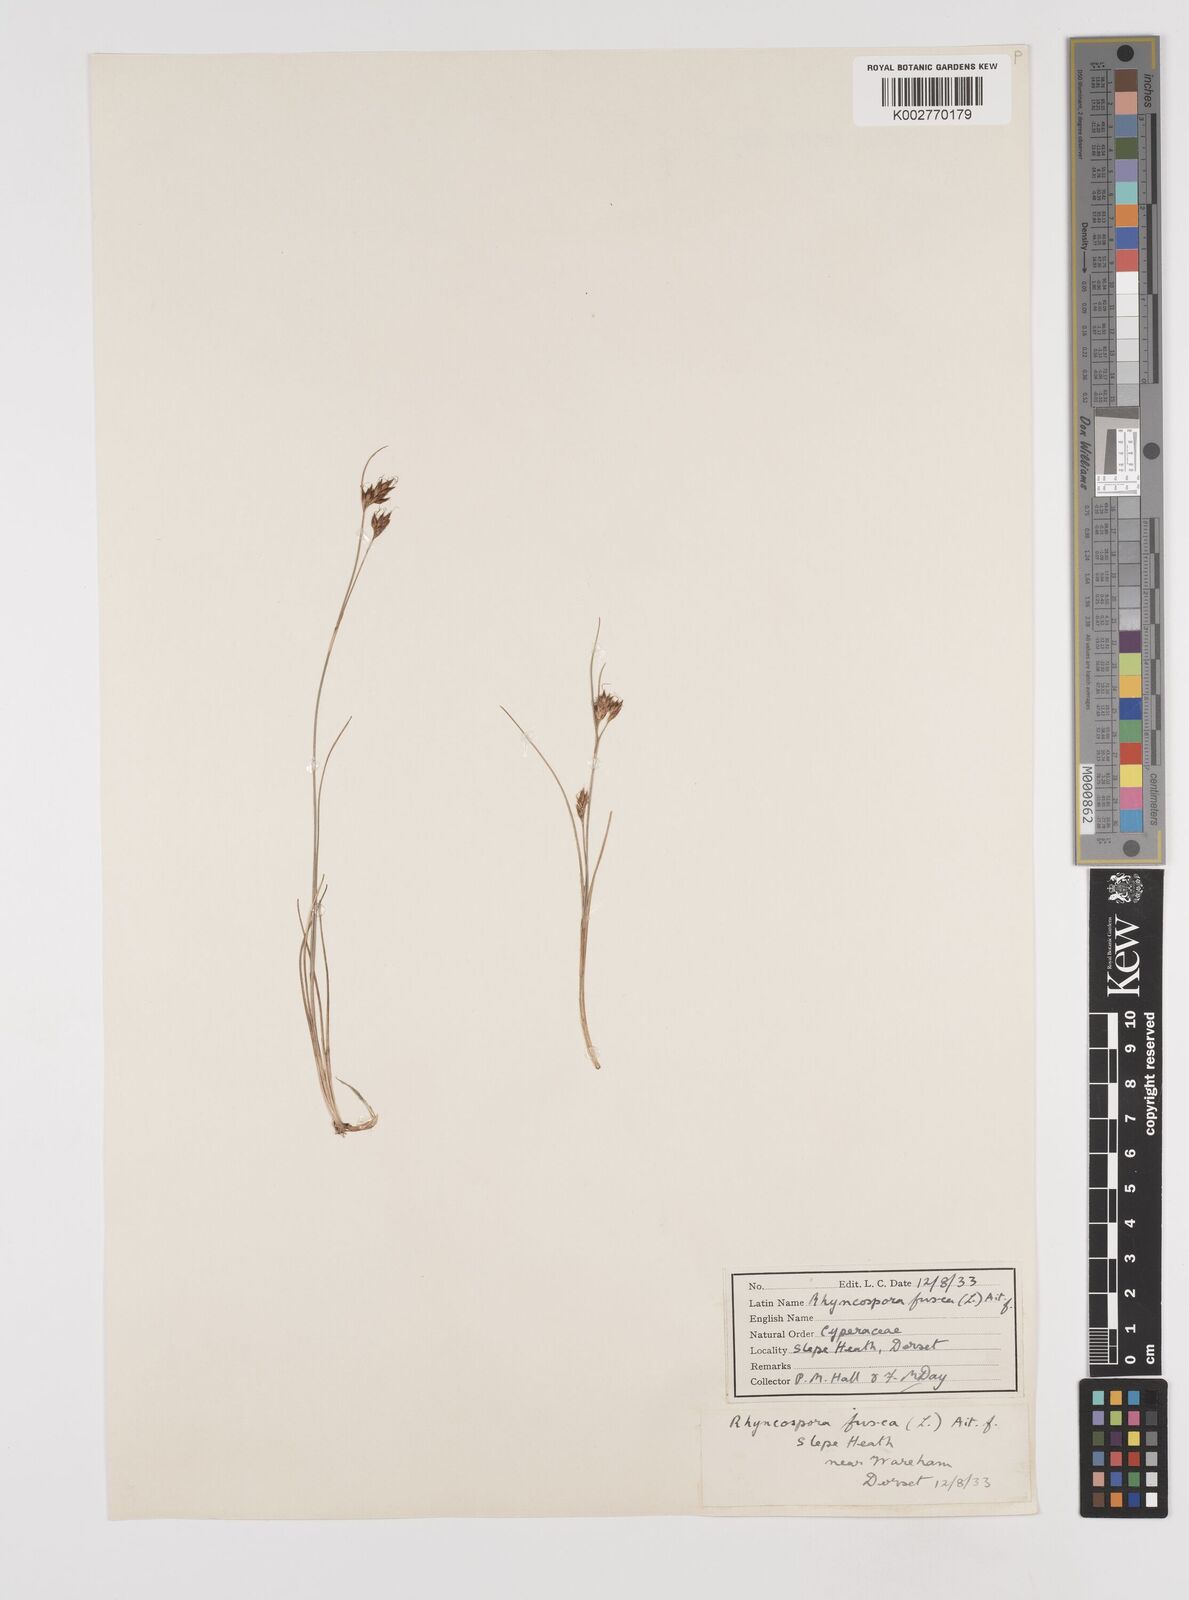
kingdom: Plantae
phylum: Tracheophyta
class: Liliopsida
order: Poales
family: Cyperaceae
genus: Rhynchospora
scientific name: Rhynchospora fusca
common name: Brown beak-sedge
